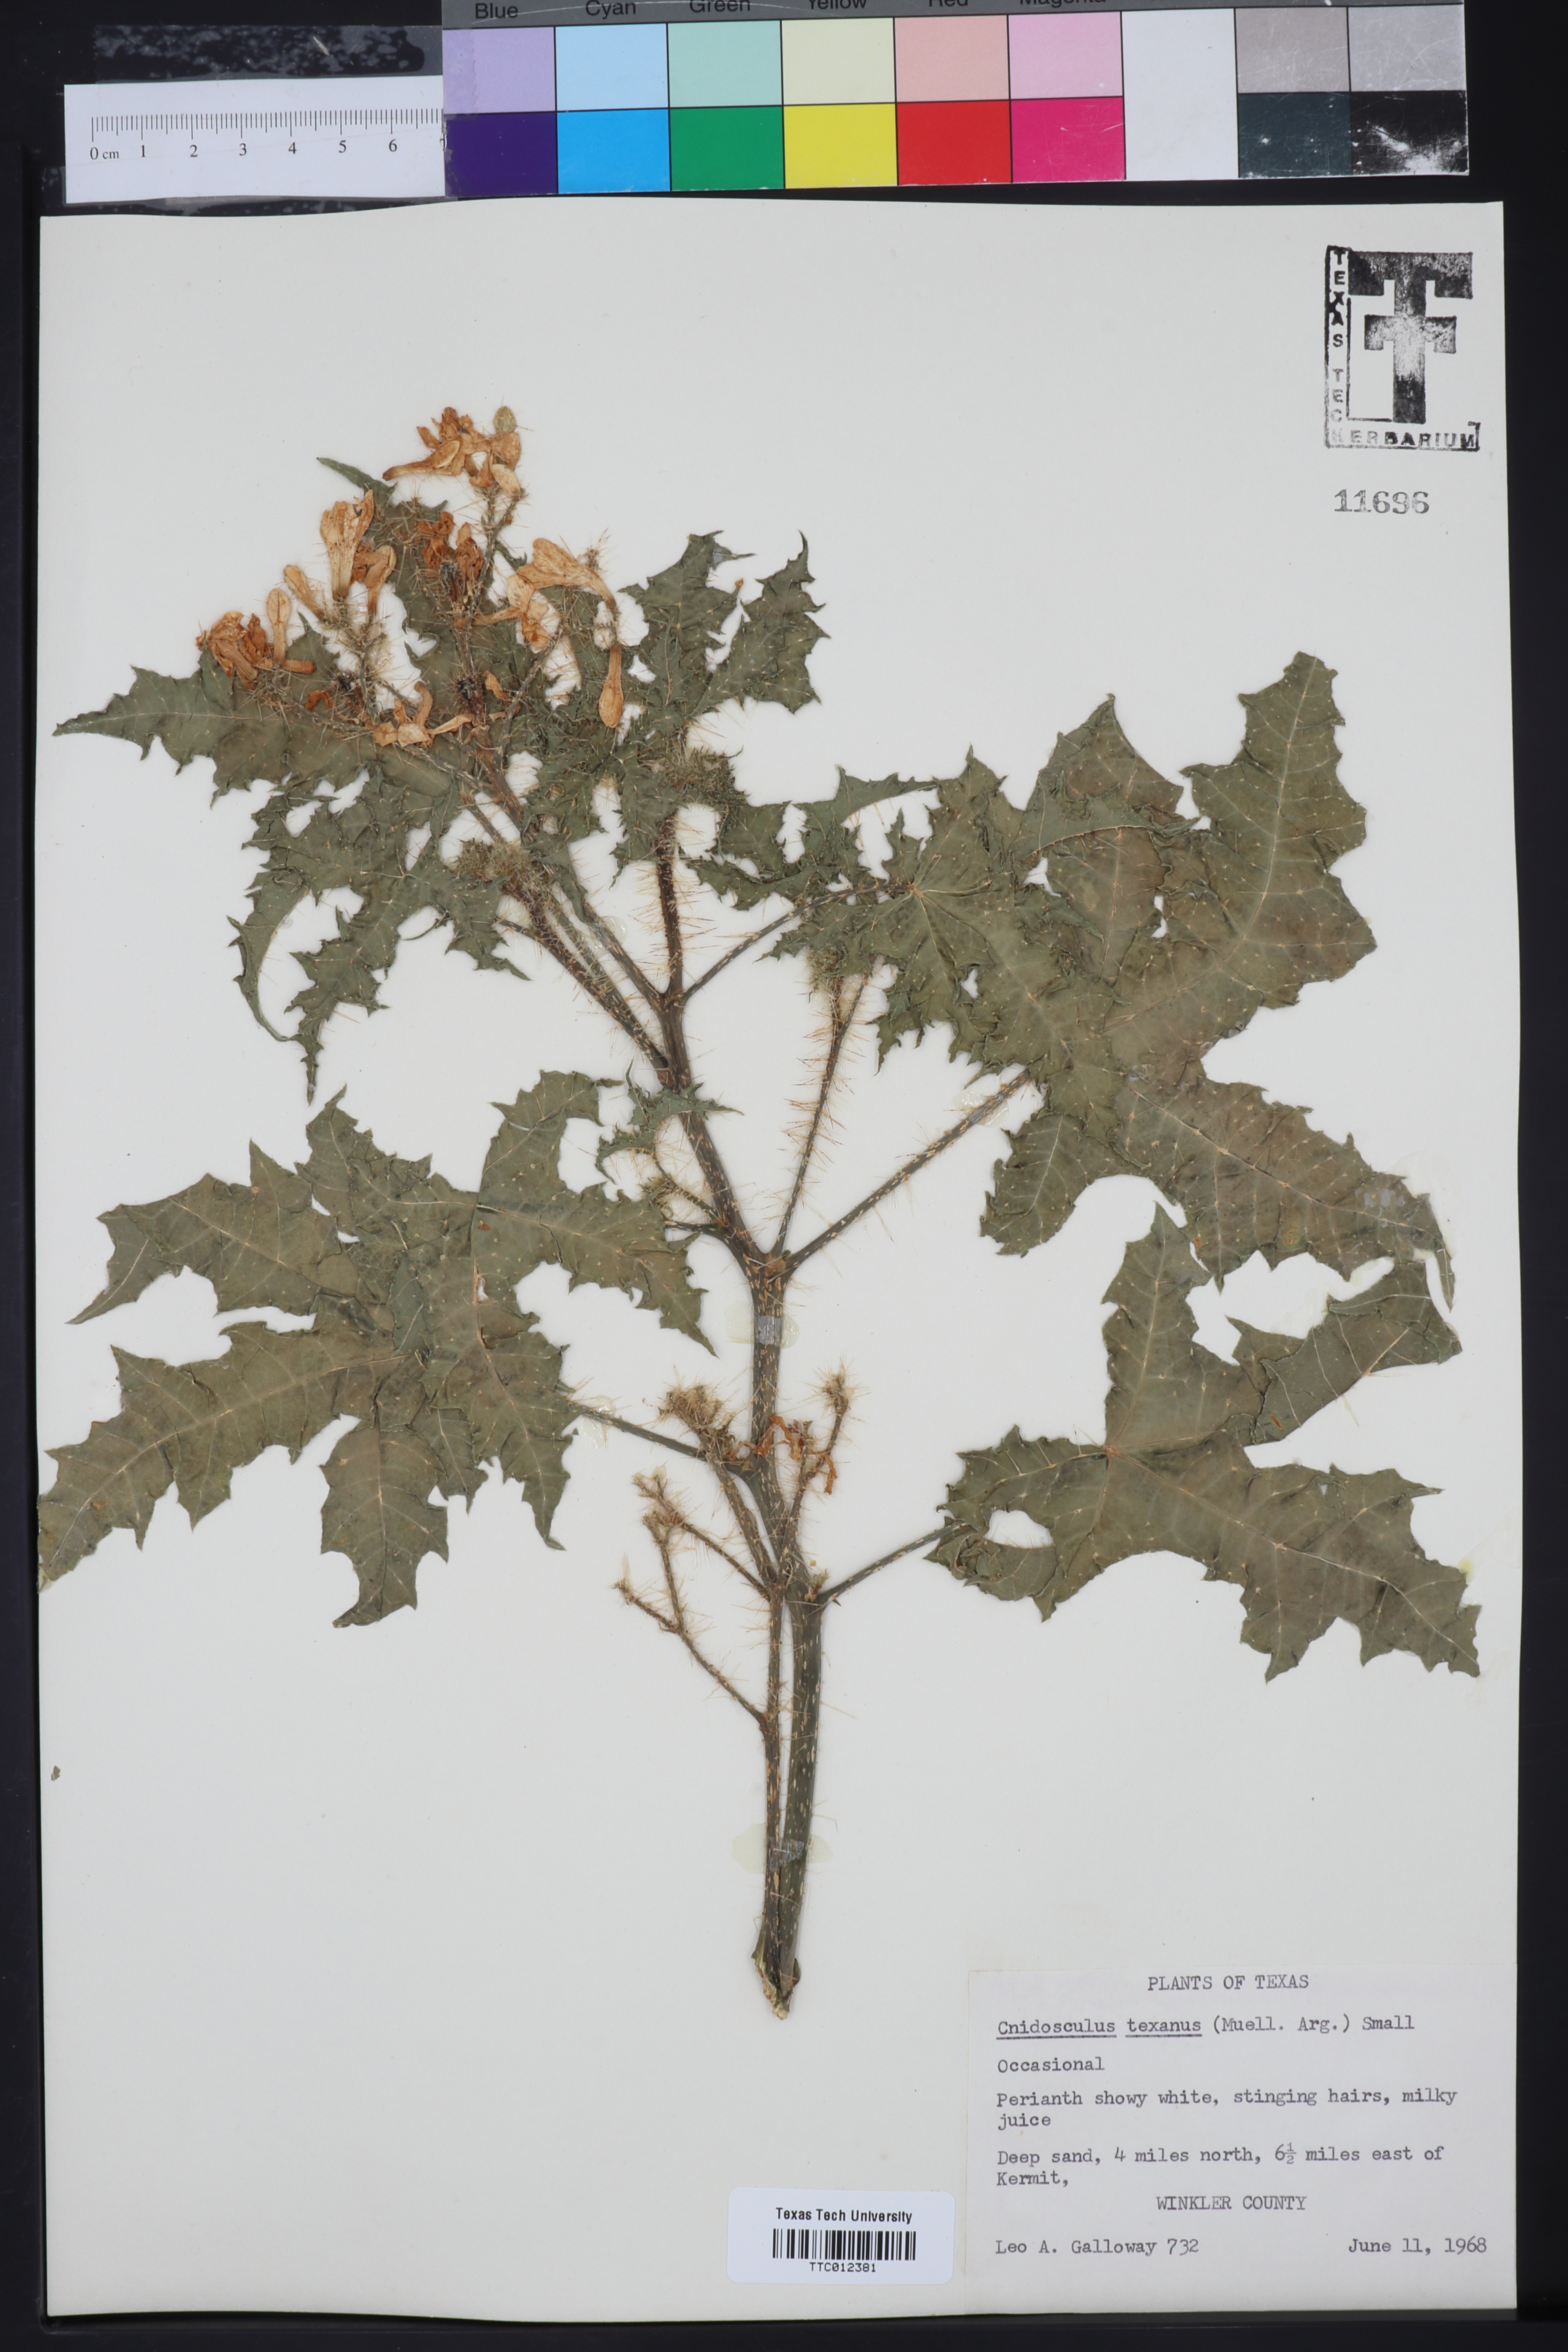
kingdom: Plantae
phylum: Tracheophyta
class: Magnoliopsida
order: Malpighiales
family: Euphorbiaceae
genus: Cnidoscolus
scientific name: Cnidoscolus texanus
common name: Texas bull-nettle
